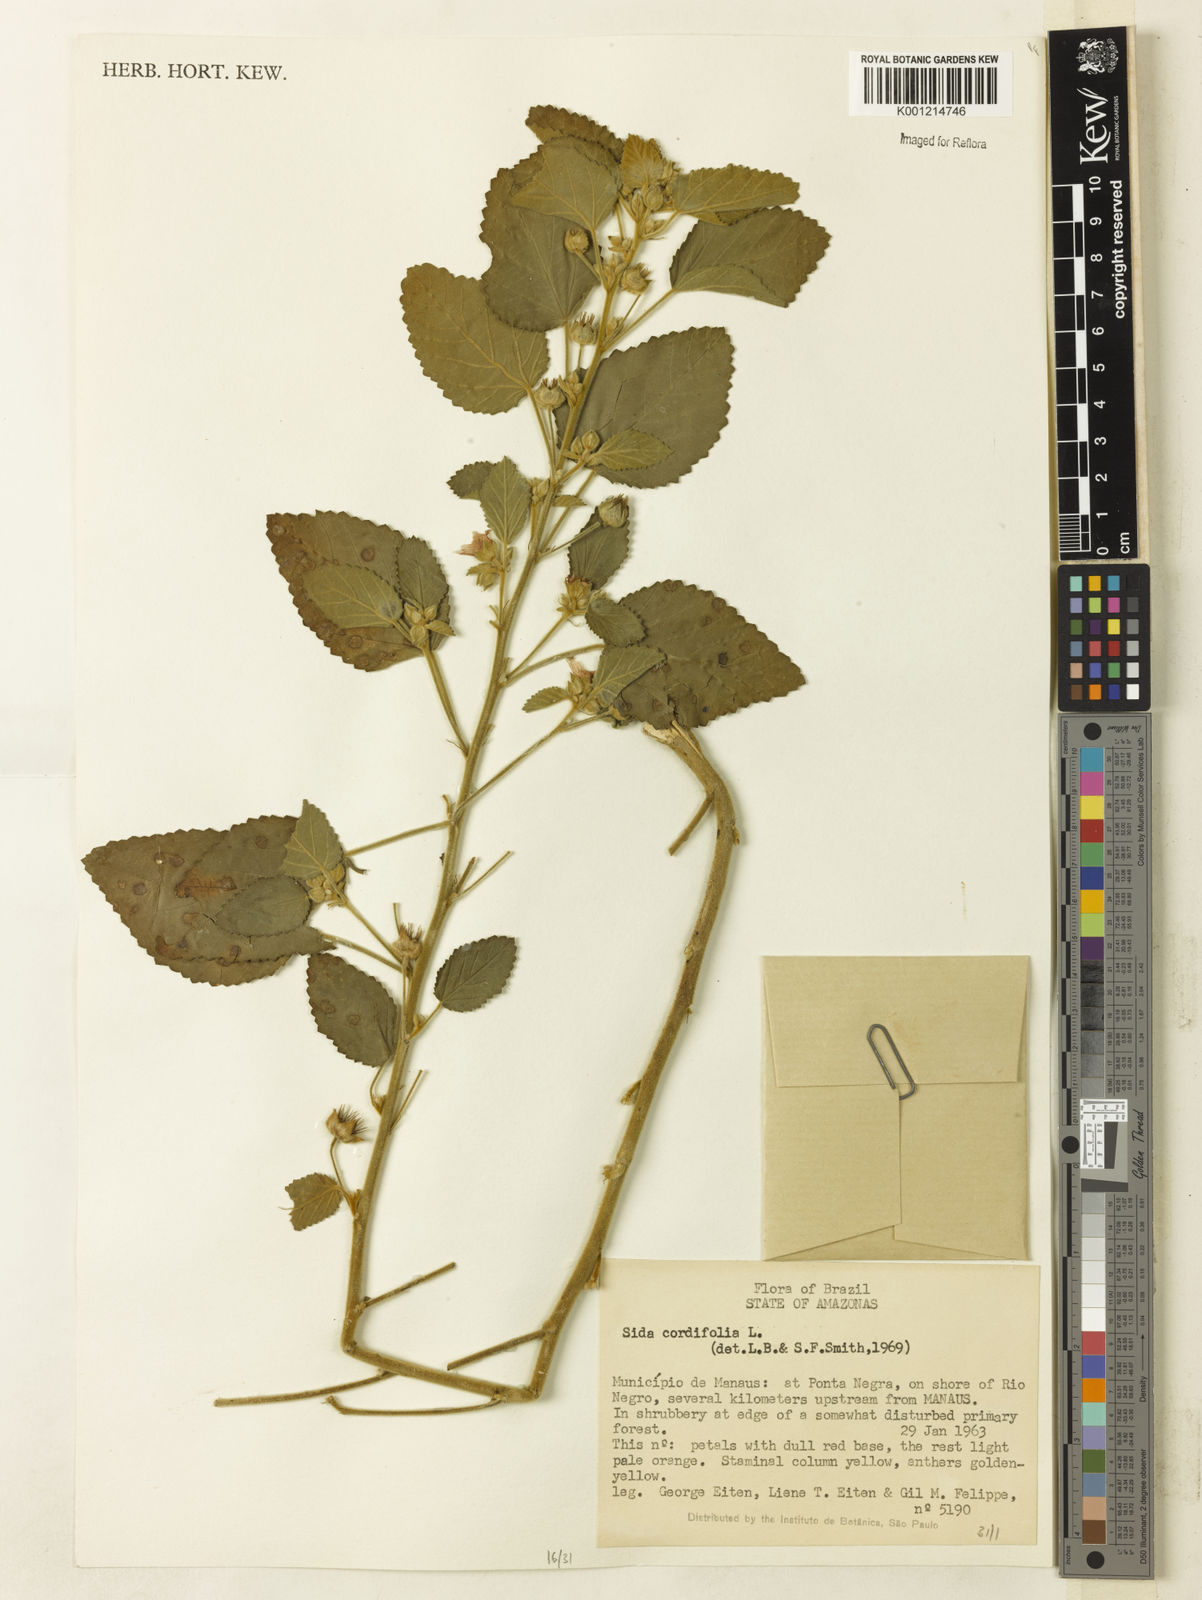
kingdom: Plantae
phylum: Tracheophyta
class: Magnoliopsida
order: Malvales
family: Malvaceae
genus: Sida
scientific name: Sida cordifolia
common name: Ilima
